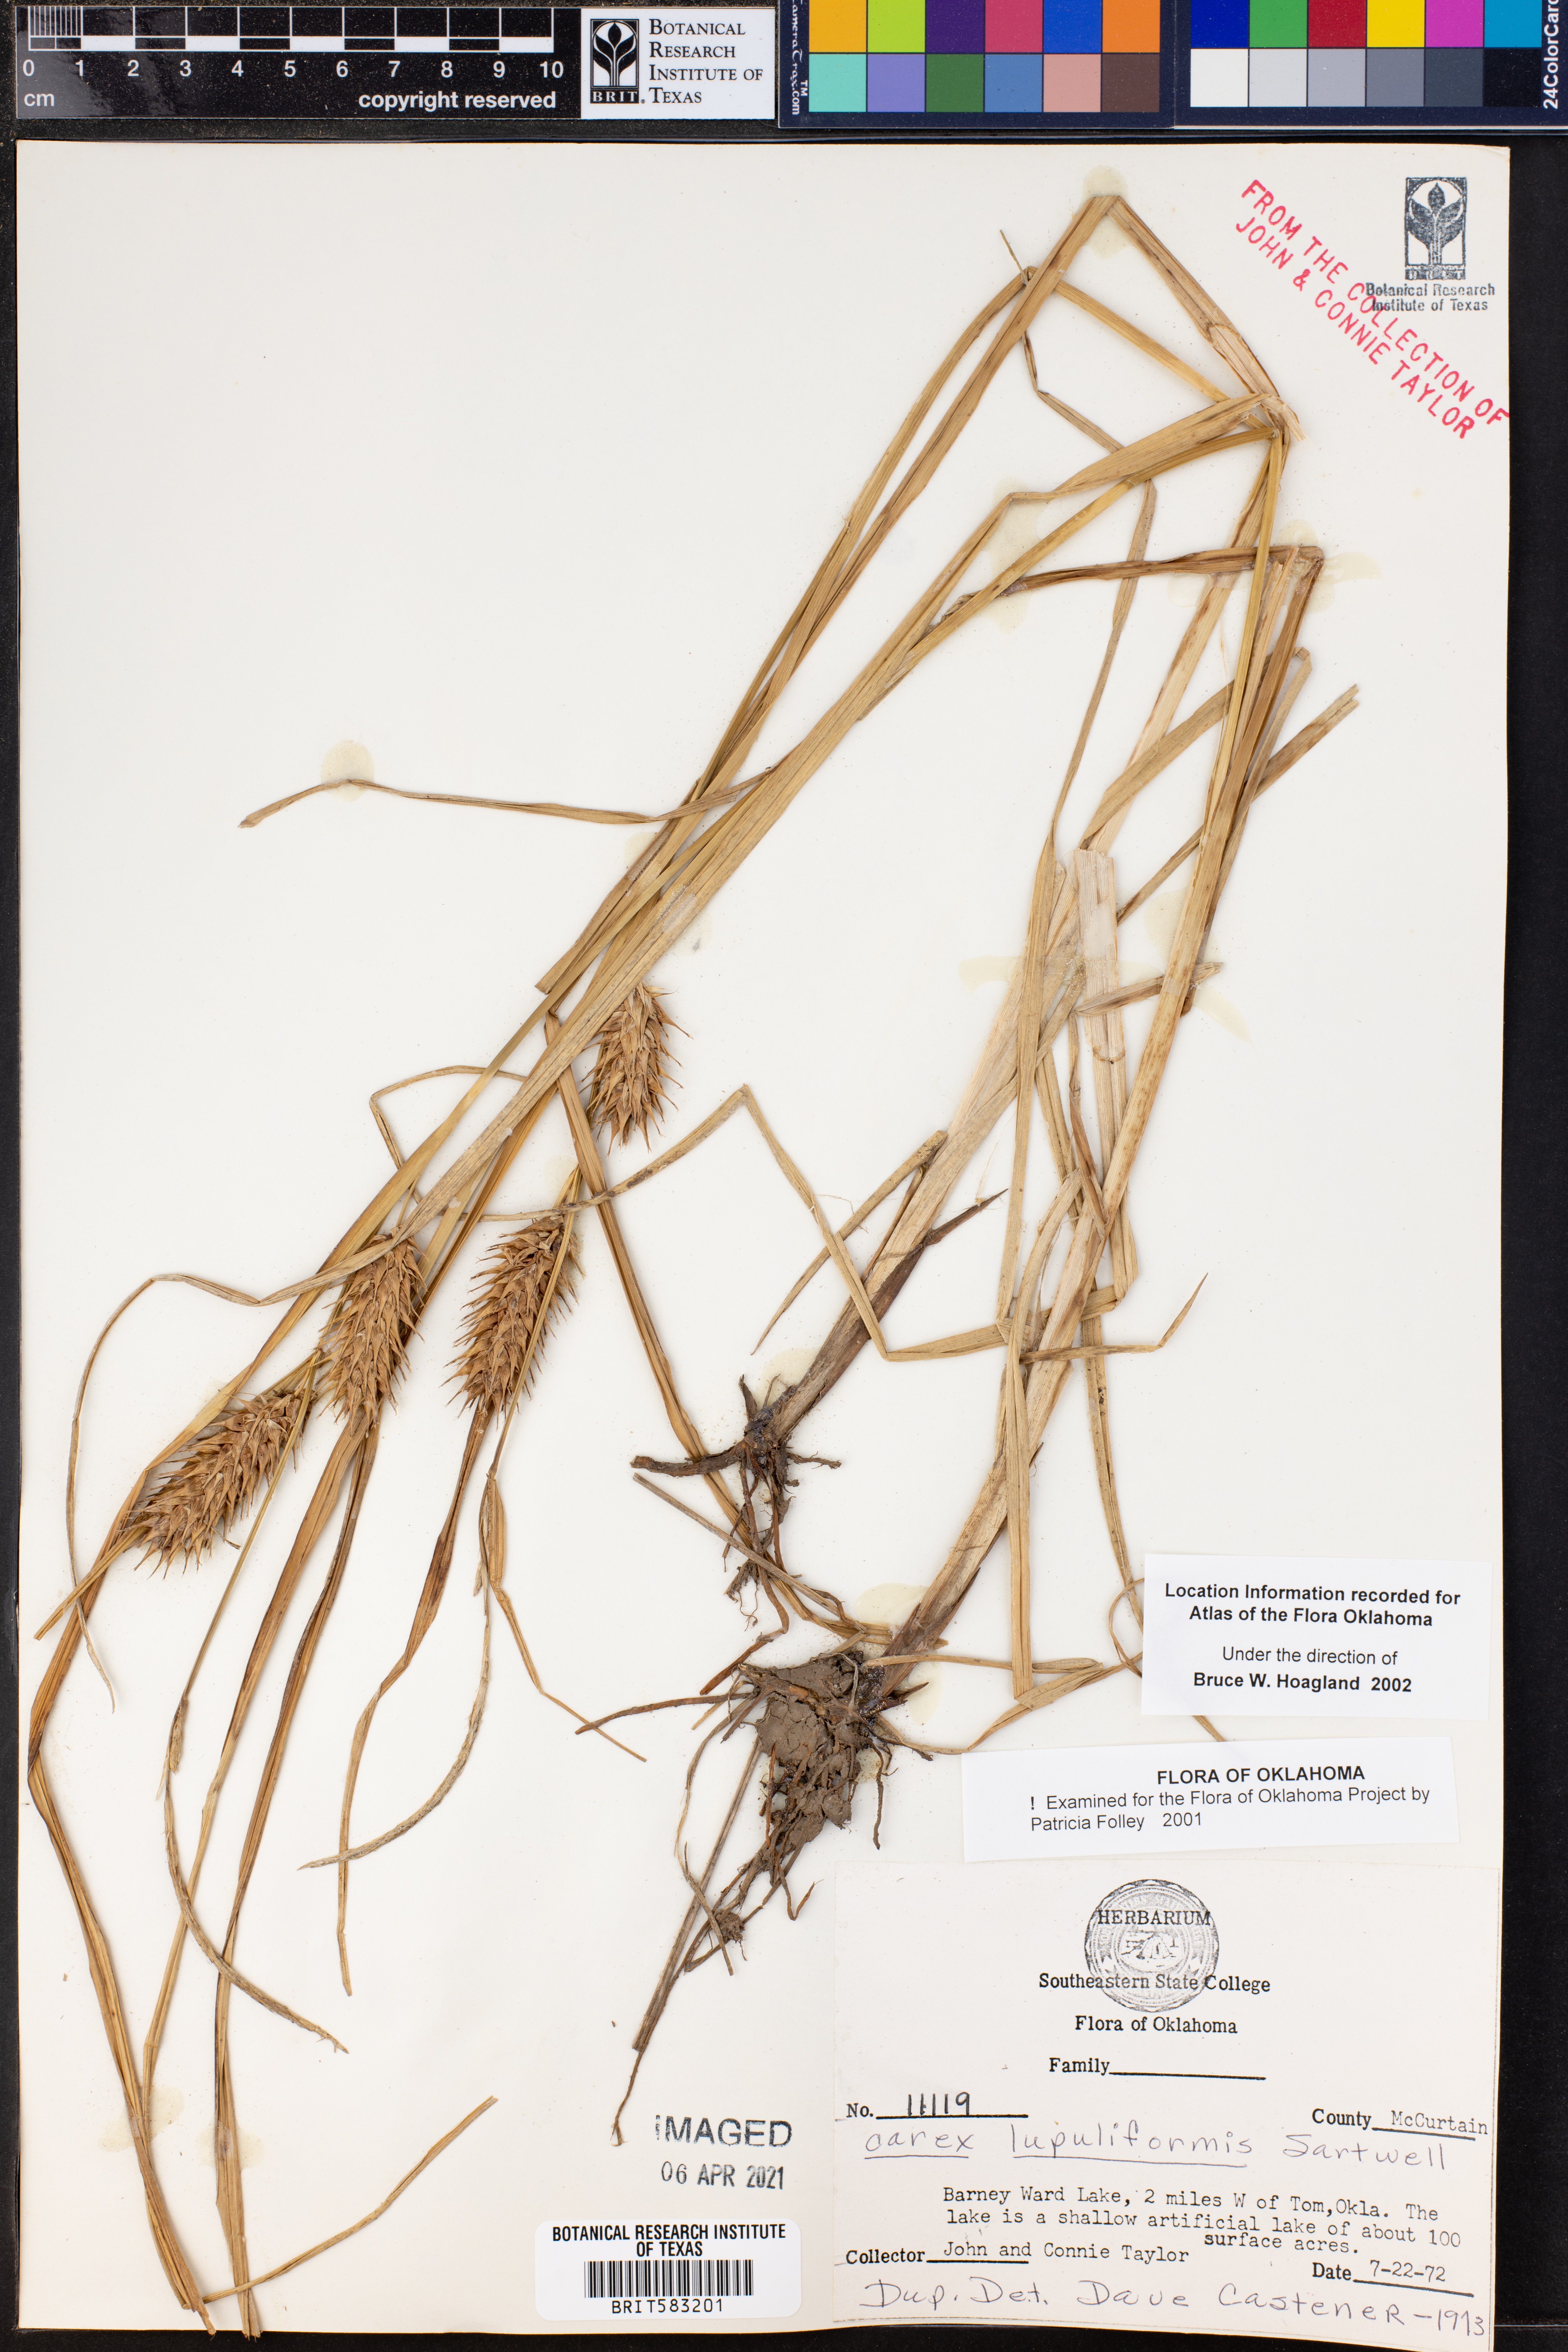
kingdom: Plantae
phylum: Tracheophyta
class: Liliopsida
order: Poales
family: Cyperaceae
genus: Carex
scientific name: Carex lupuliformis
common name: False hop sedge
